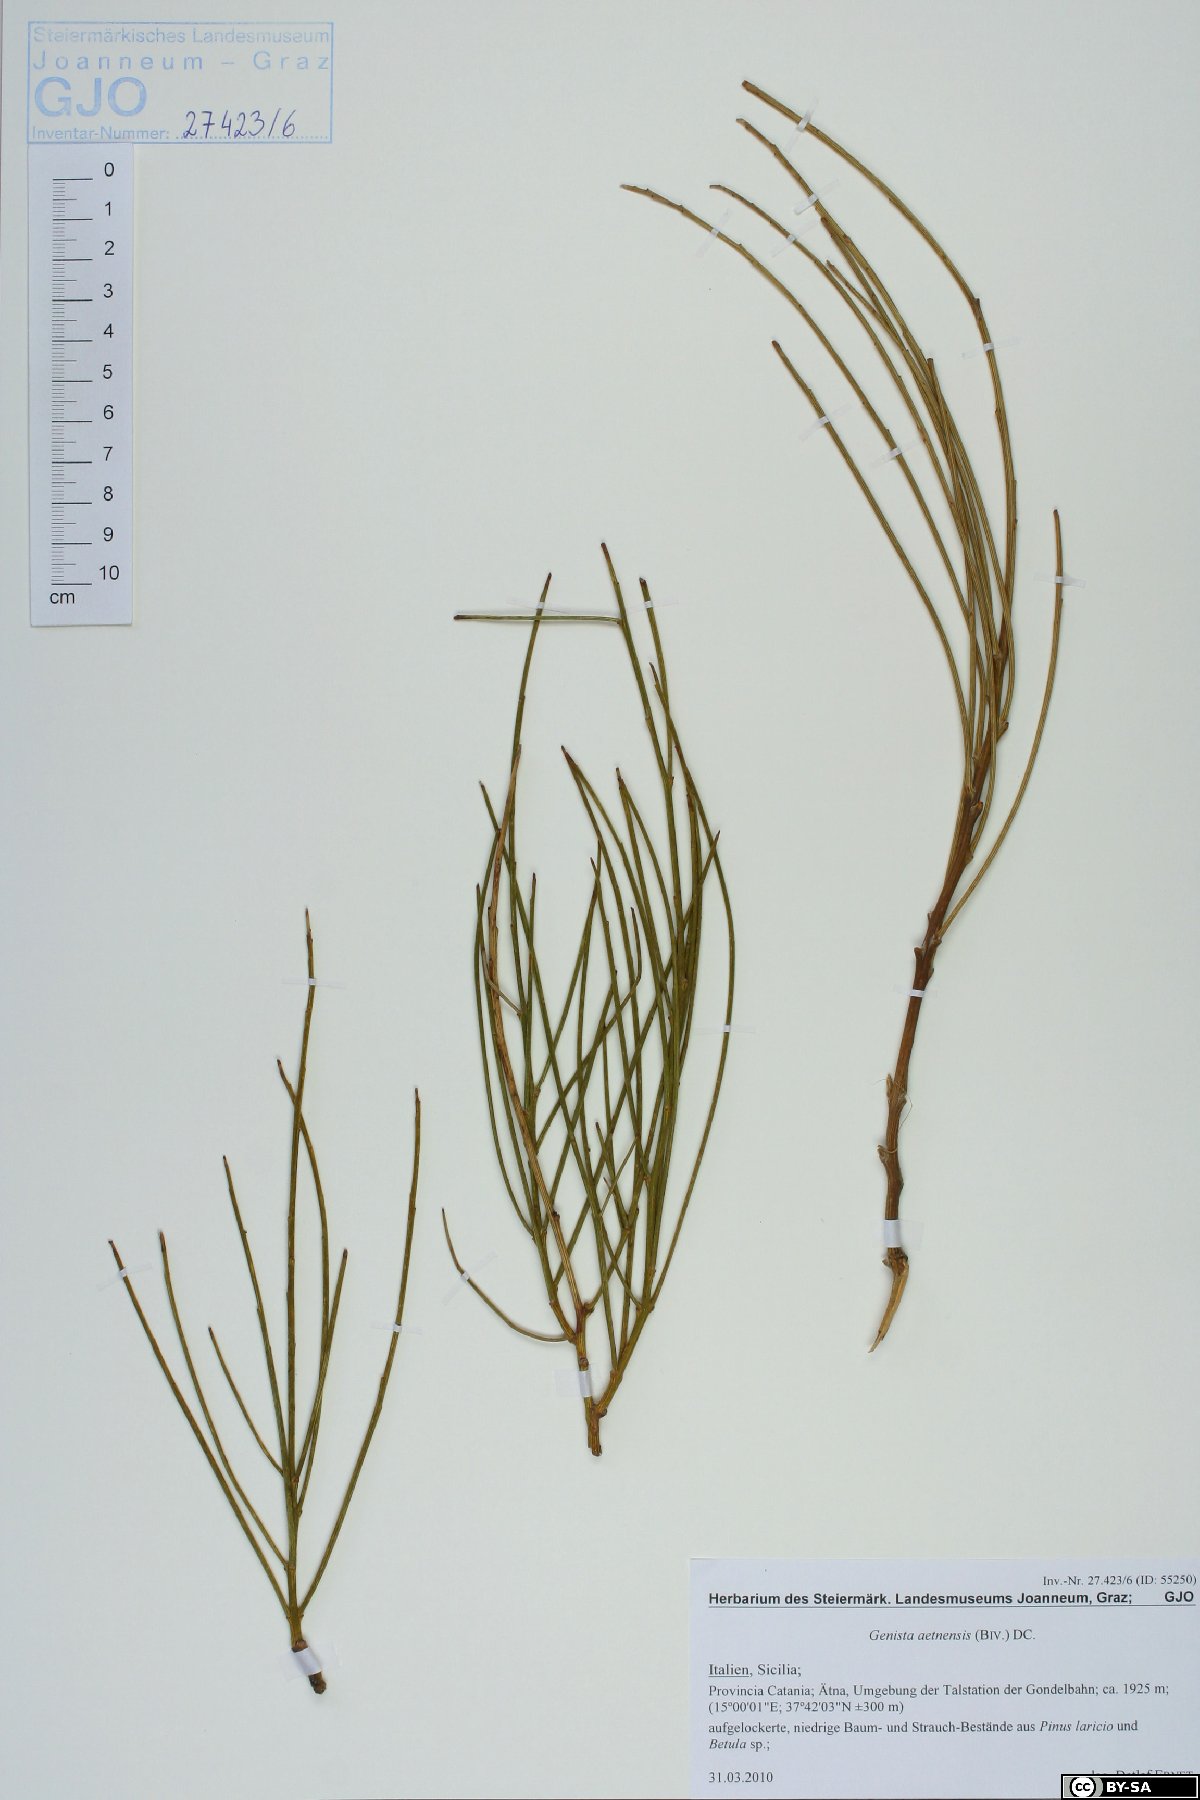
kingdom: Plantae
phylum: Tracheophyta
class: Magnoliopsida
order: Fabales
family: Fabaceae
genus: Genista
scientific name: Genista aetnensis
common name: Mount etna broom
